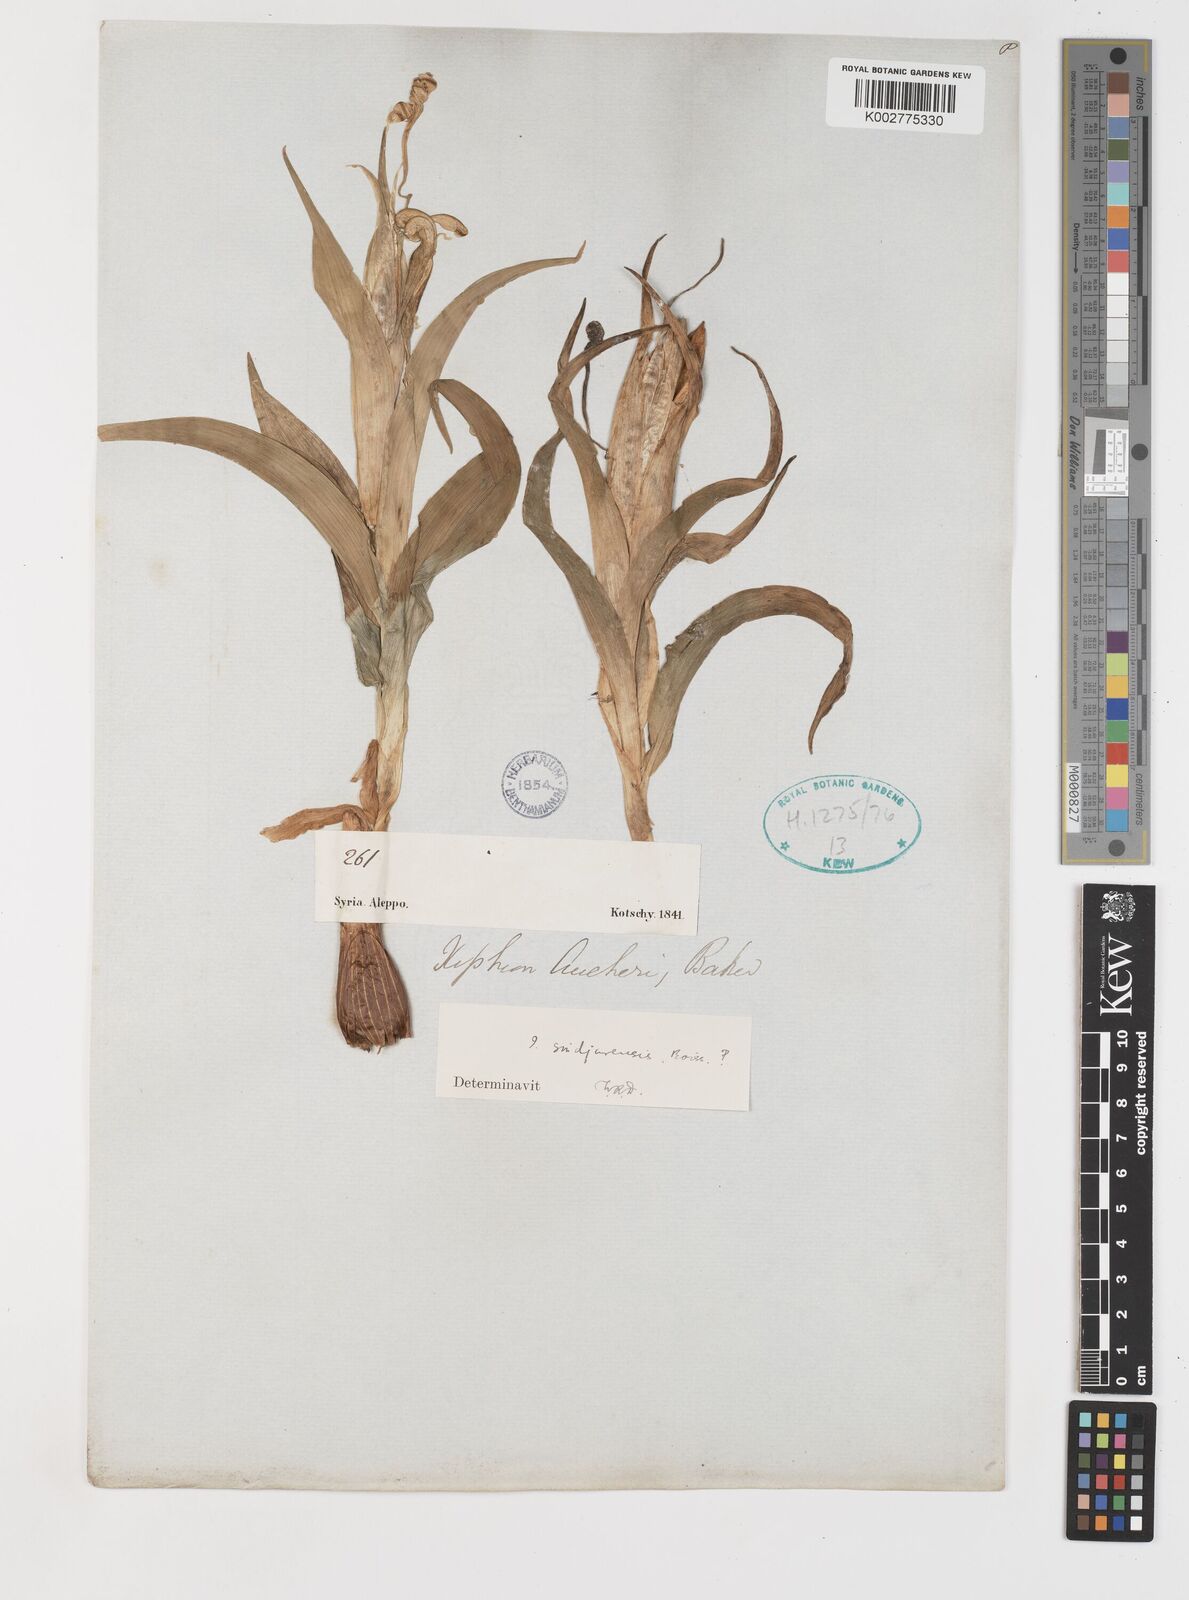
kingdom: Plantae
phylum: Tracheophyta
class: Liliopsida
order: Asparagales
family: Iridaceae
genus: Iris
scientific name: Iris aucheri
